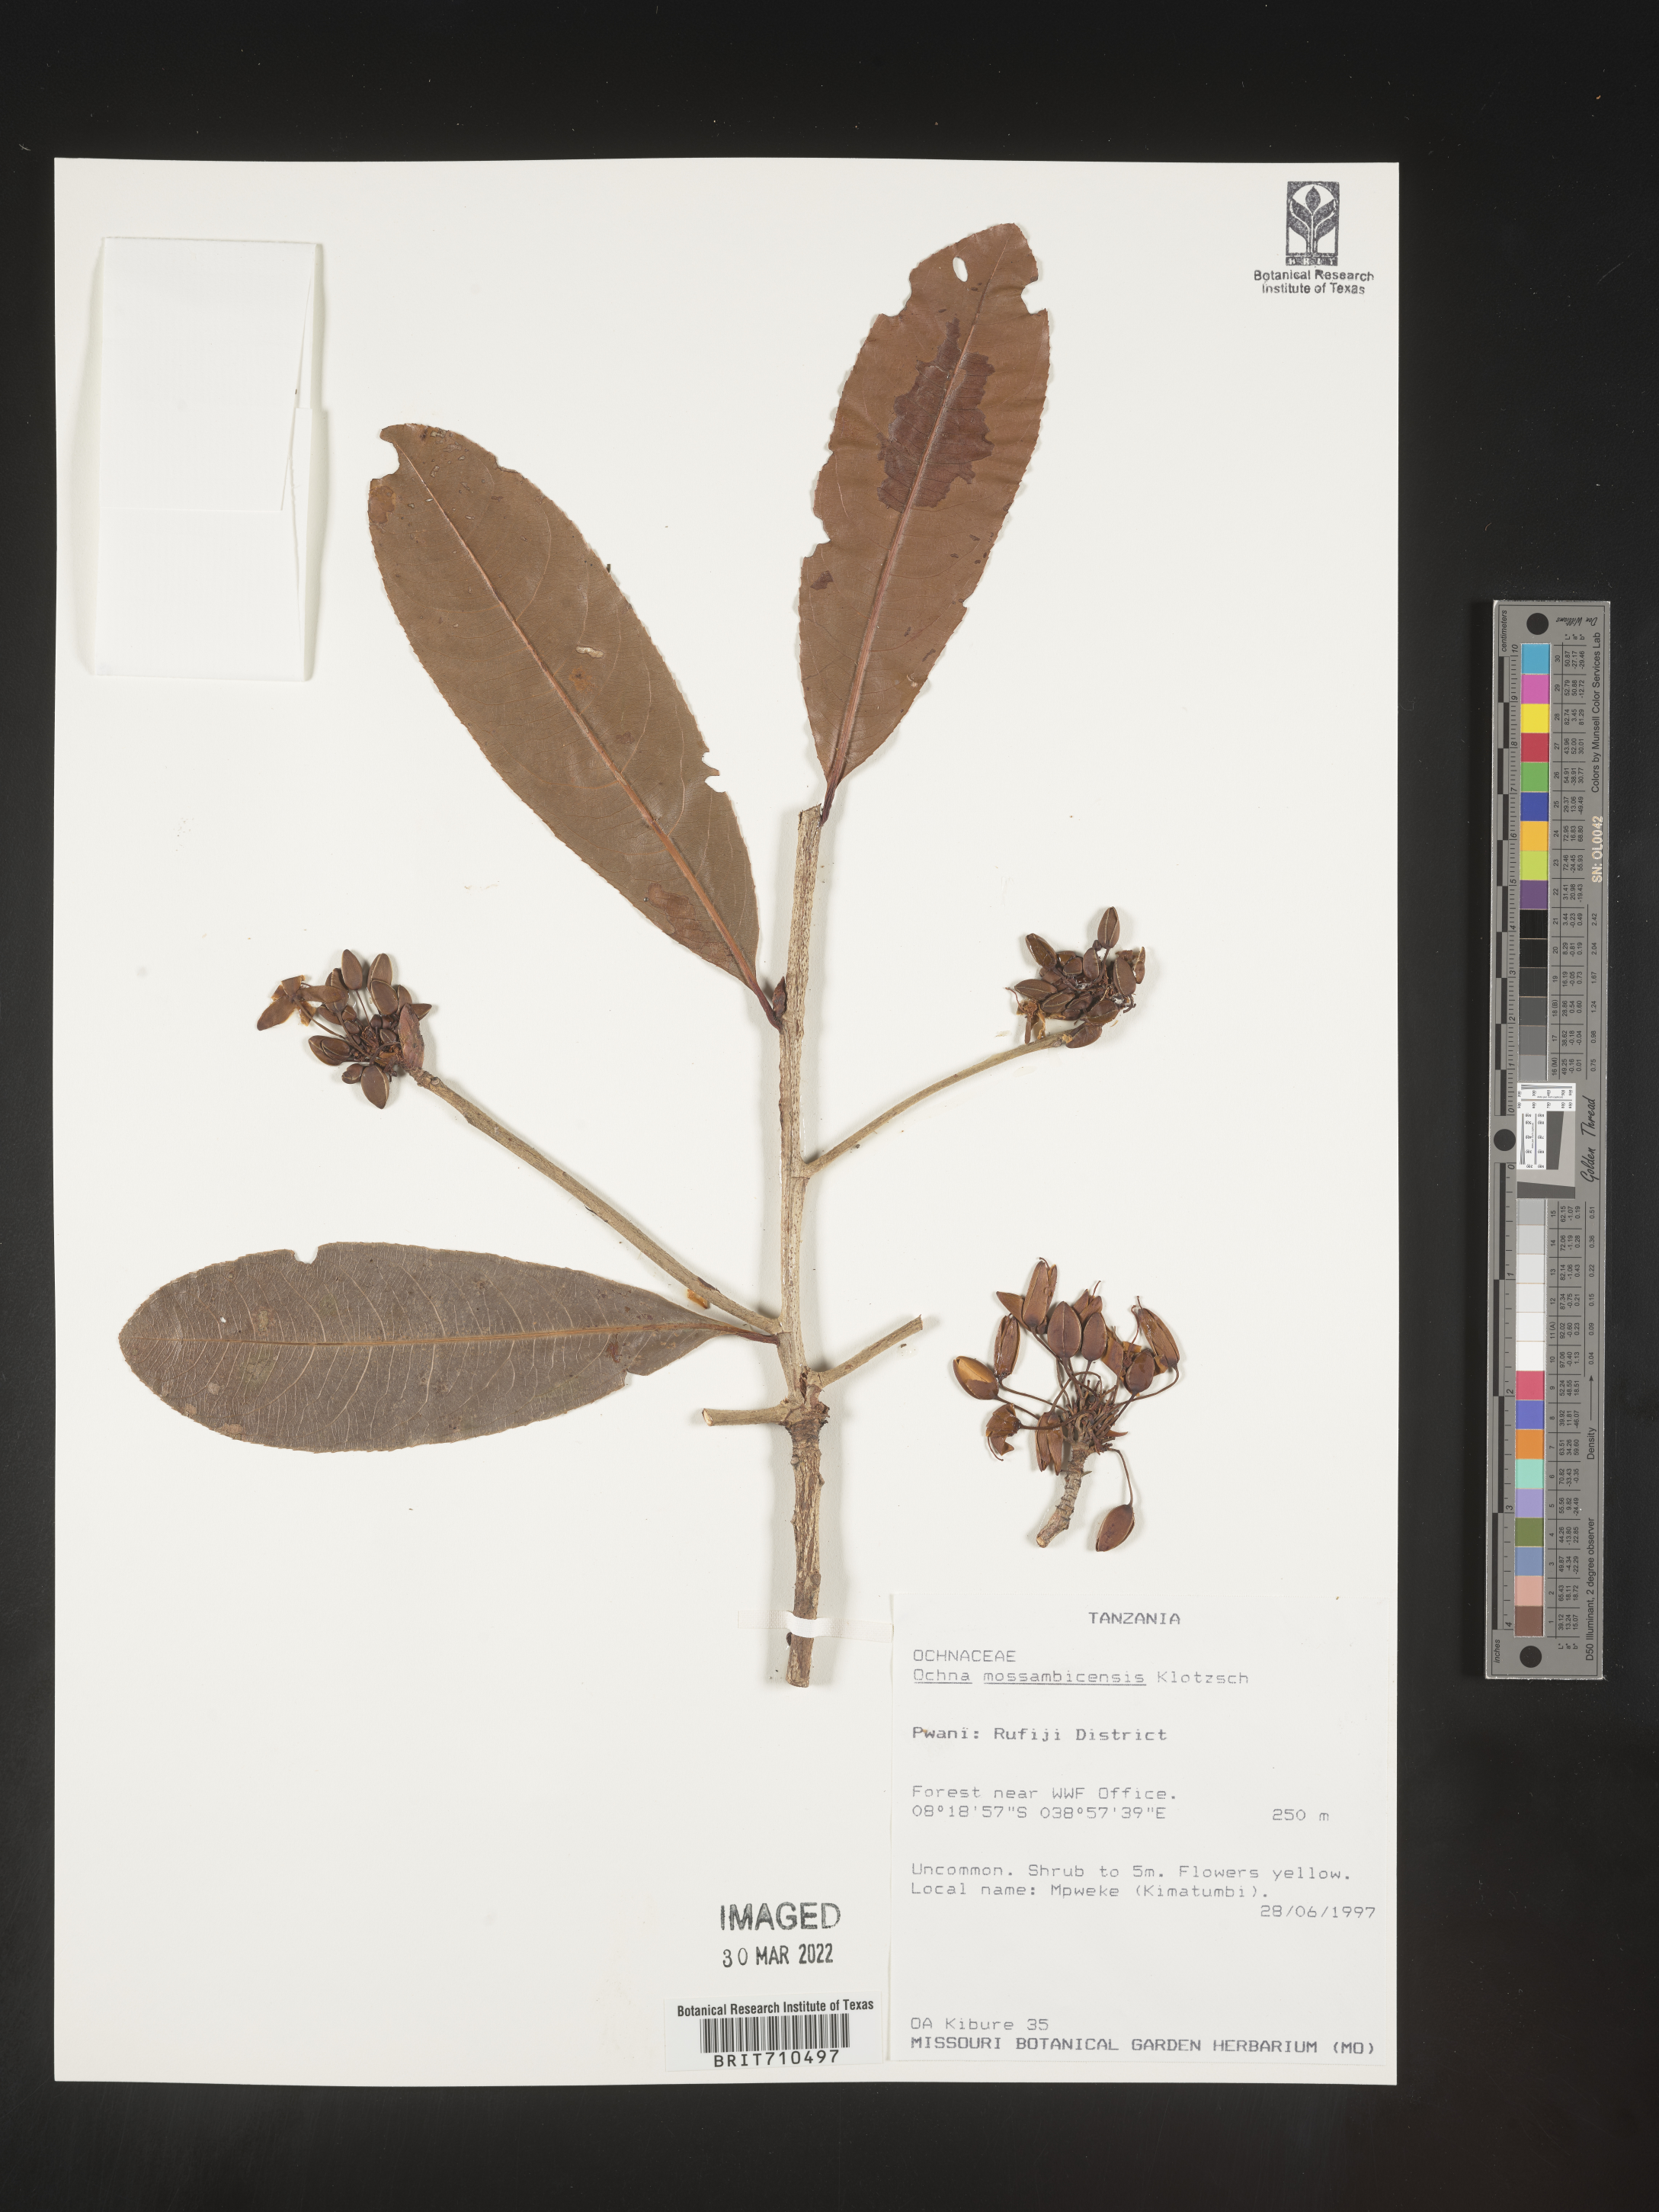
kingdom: Plantae
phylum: Tracheophyta
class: Magnoliopsida
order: Malpighiales
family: Ochnaceae
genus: Ochna
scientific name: Ochna
